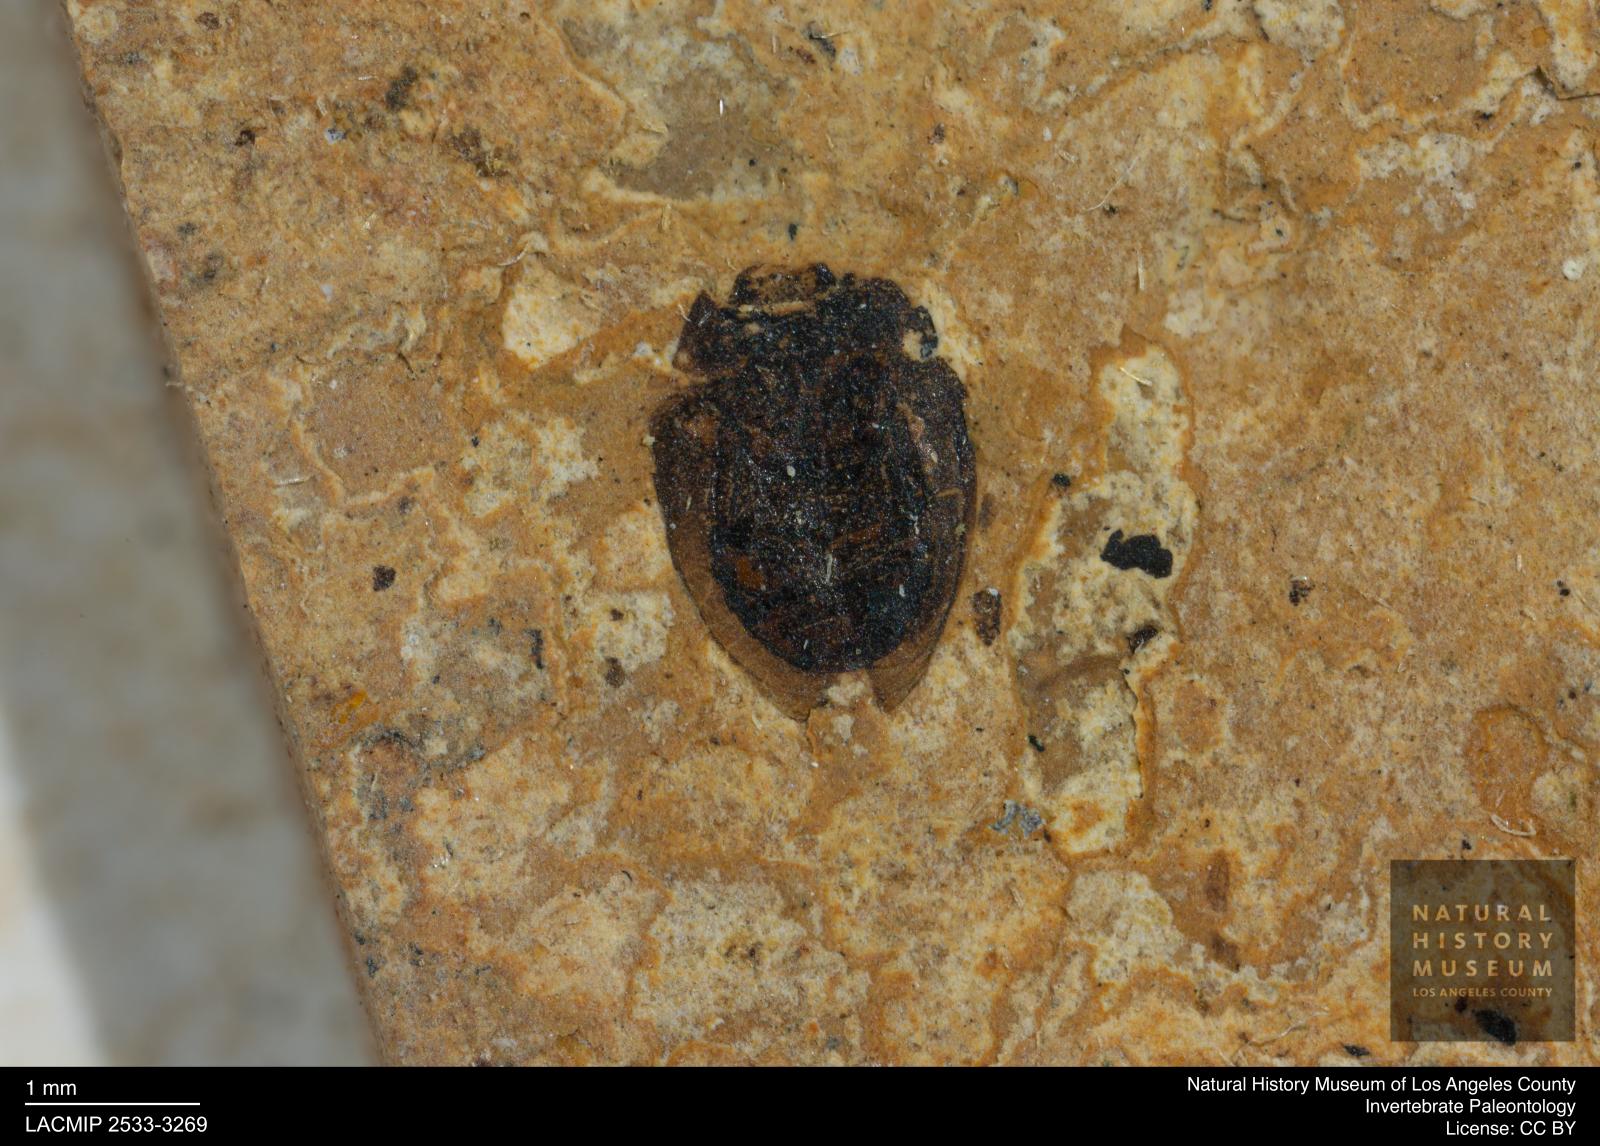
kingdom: Animalia
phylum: Arthropoda
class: Insecta
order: Coleoptera
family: Hydrophilidae
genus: Paracymus
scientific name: Paracymus excitatus
